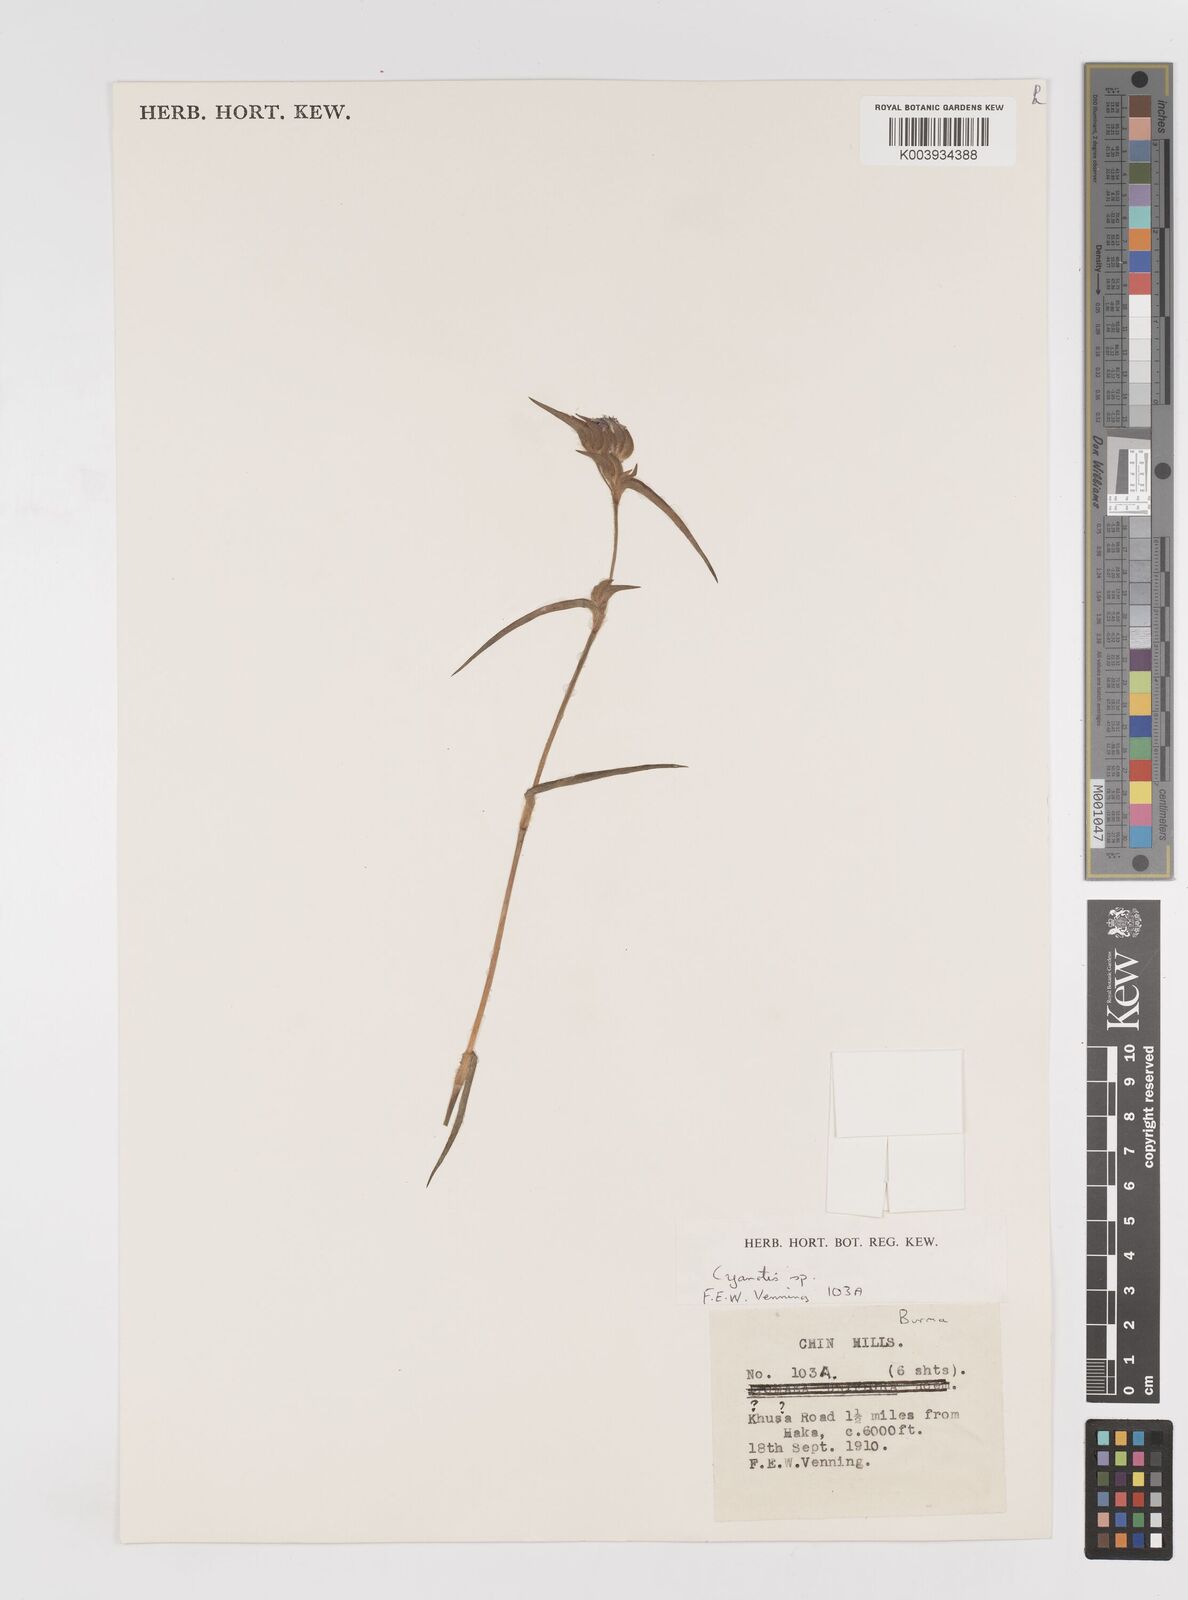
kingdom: Plantae
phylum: Tracheophyta
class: Liliopsida
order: Commelinales
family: Commelinaceae
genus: Cyanotis
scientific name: Cyanotis
